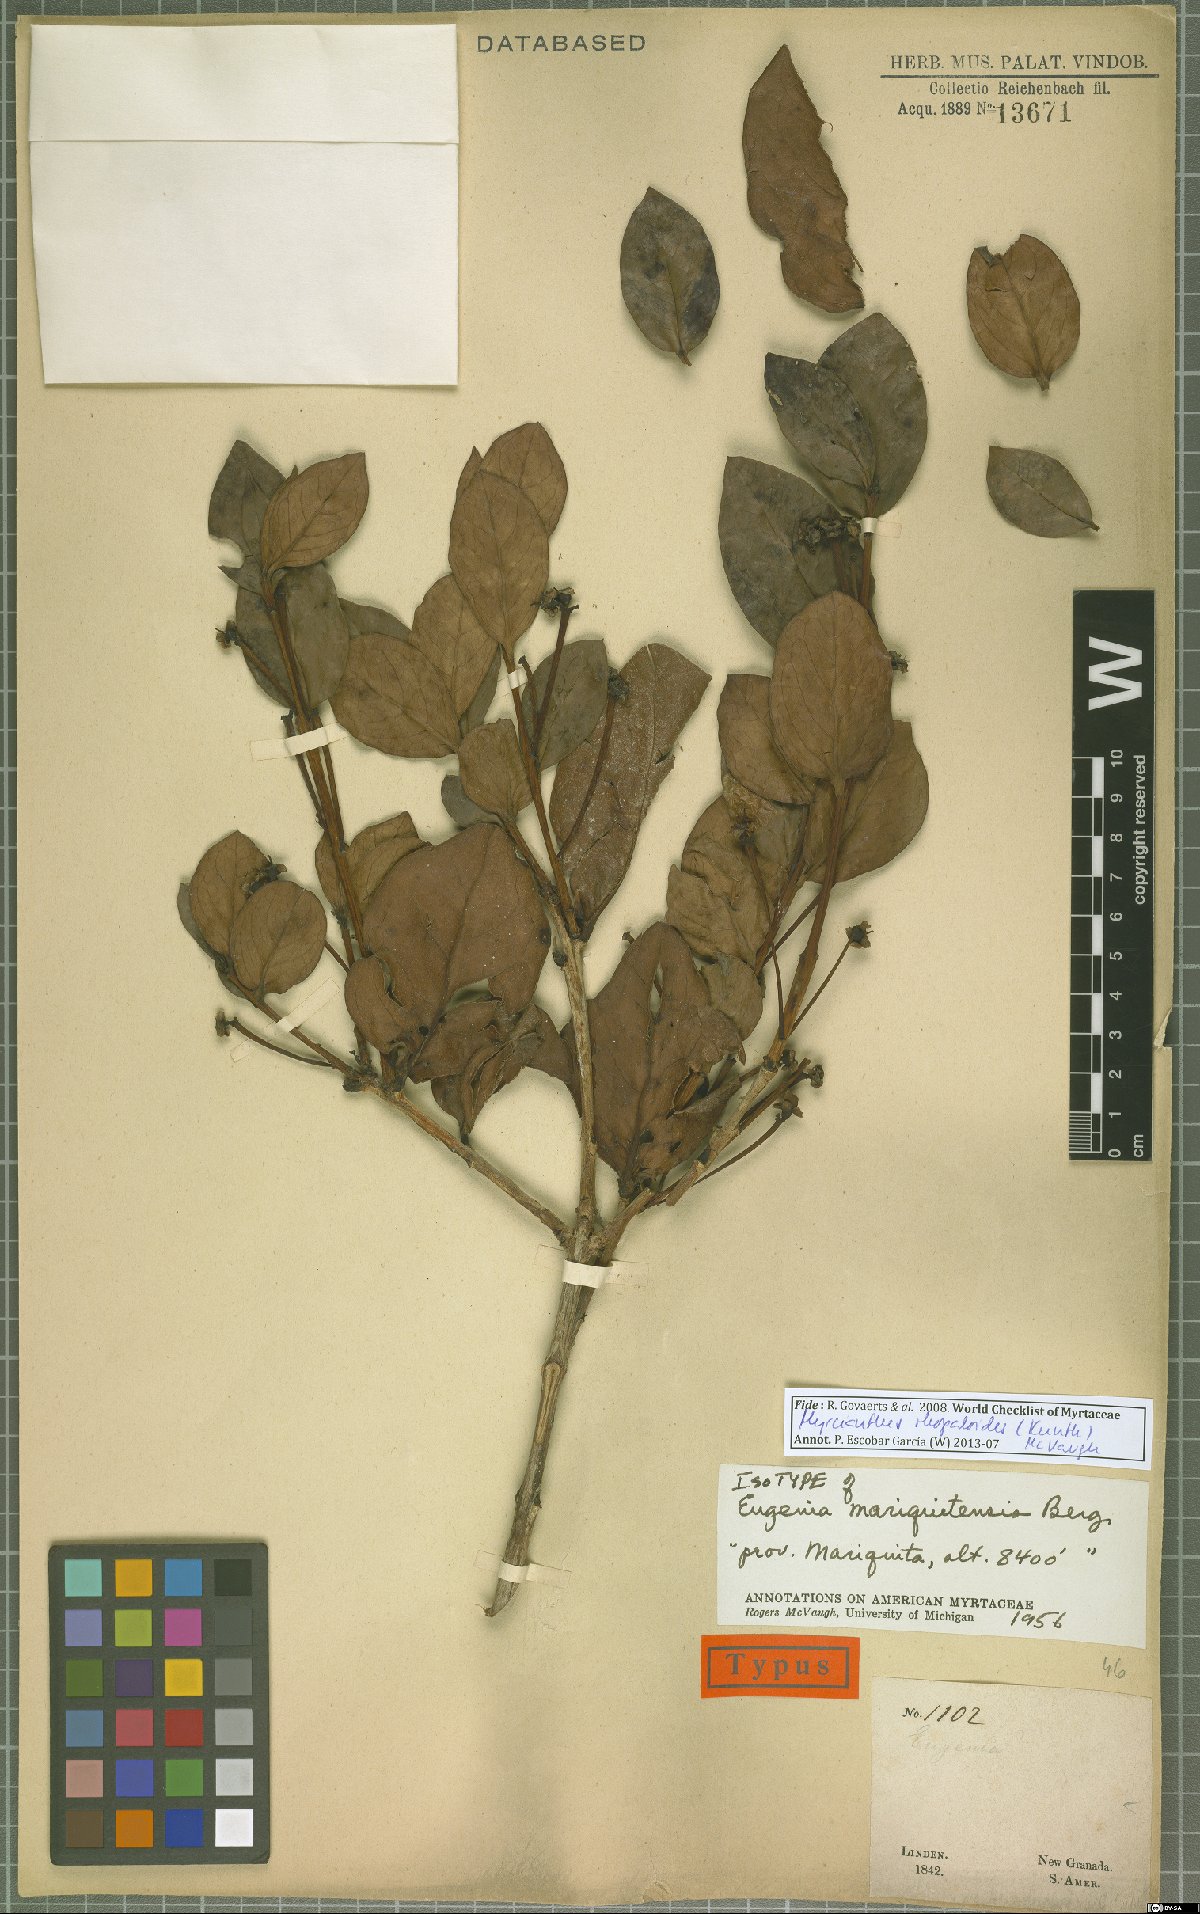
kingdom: Plantae
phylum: Tracheophyta
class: Magnoliopsida
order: Myrtales
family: Myrtaceae
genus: Myrcianthes
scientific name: Myrcianthes rhopaloides
